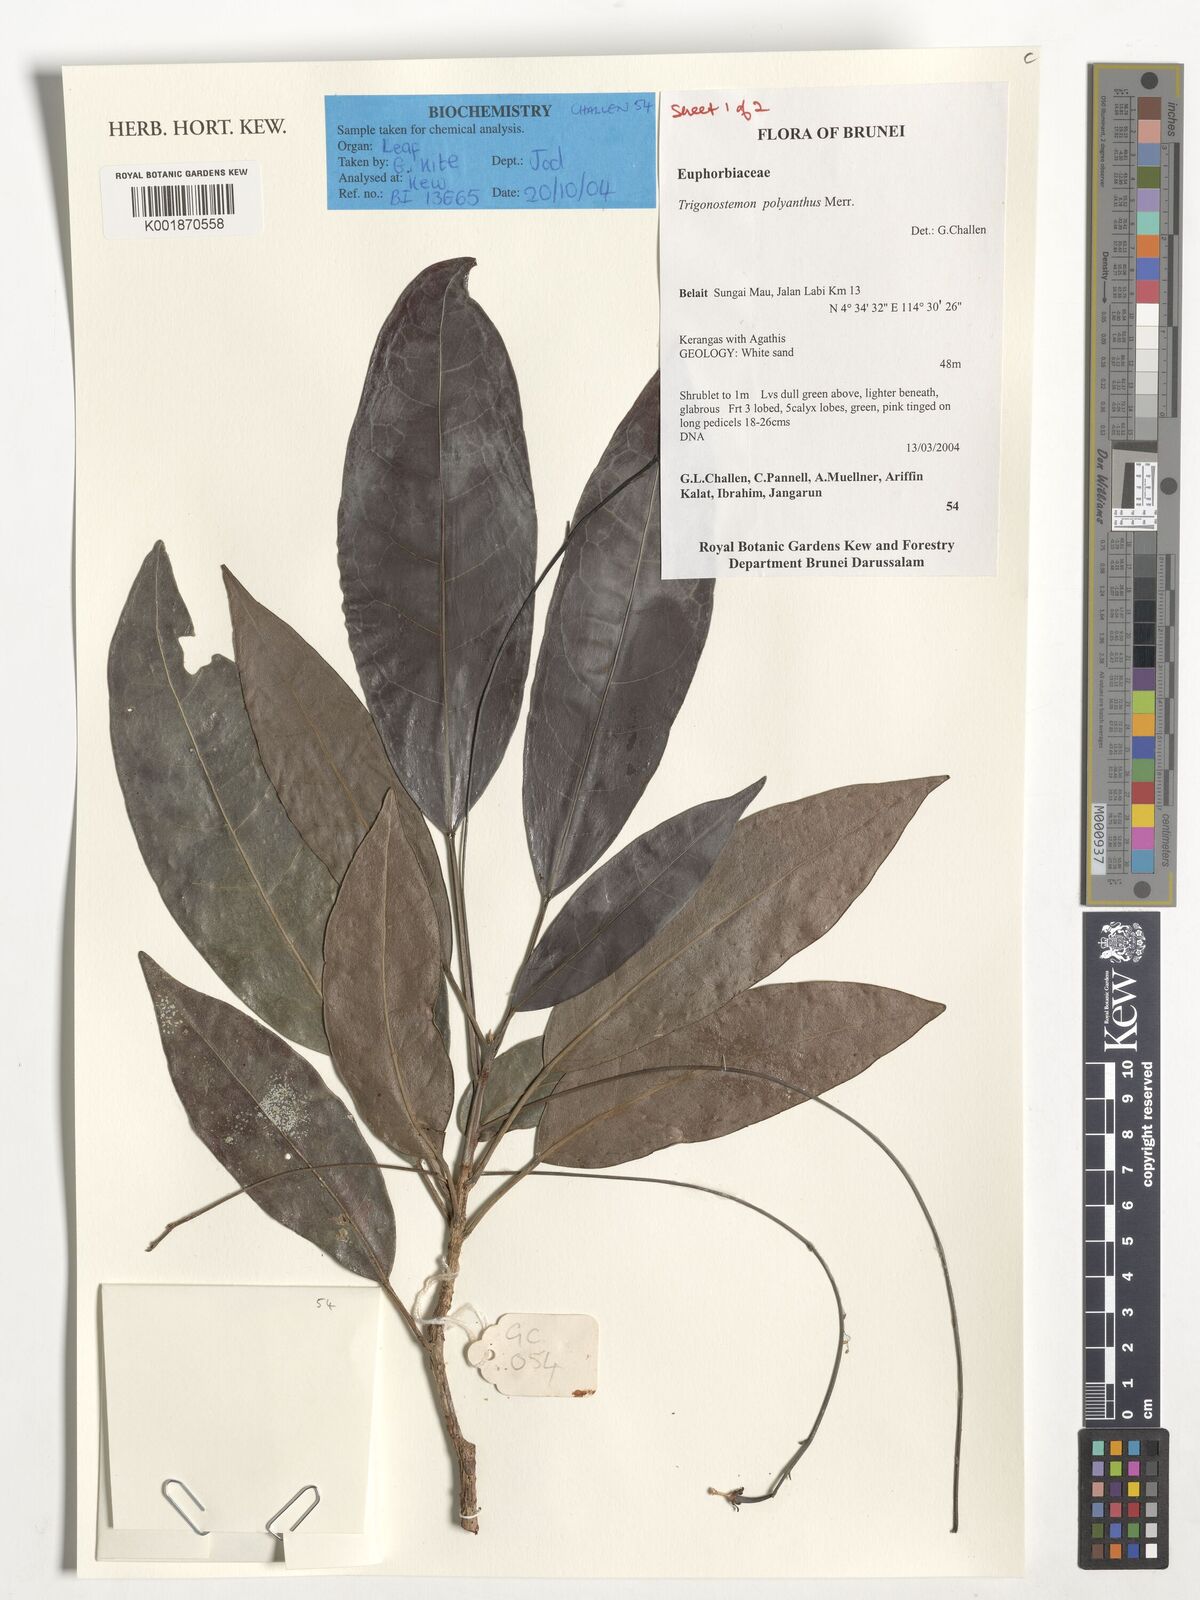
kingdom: Plantae
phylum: Tracheophyta
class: Magnoliopsida
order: Malpighiales
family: Euphorbiaceae
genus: Trigonostemon
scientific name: Trigonostemon polyanthus
